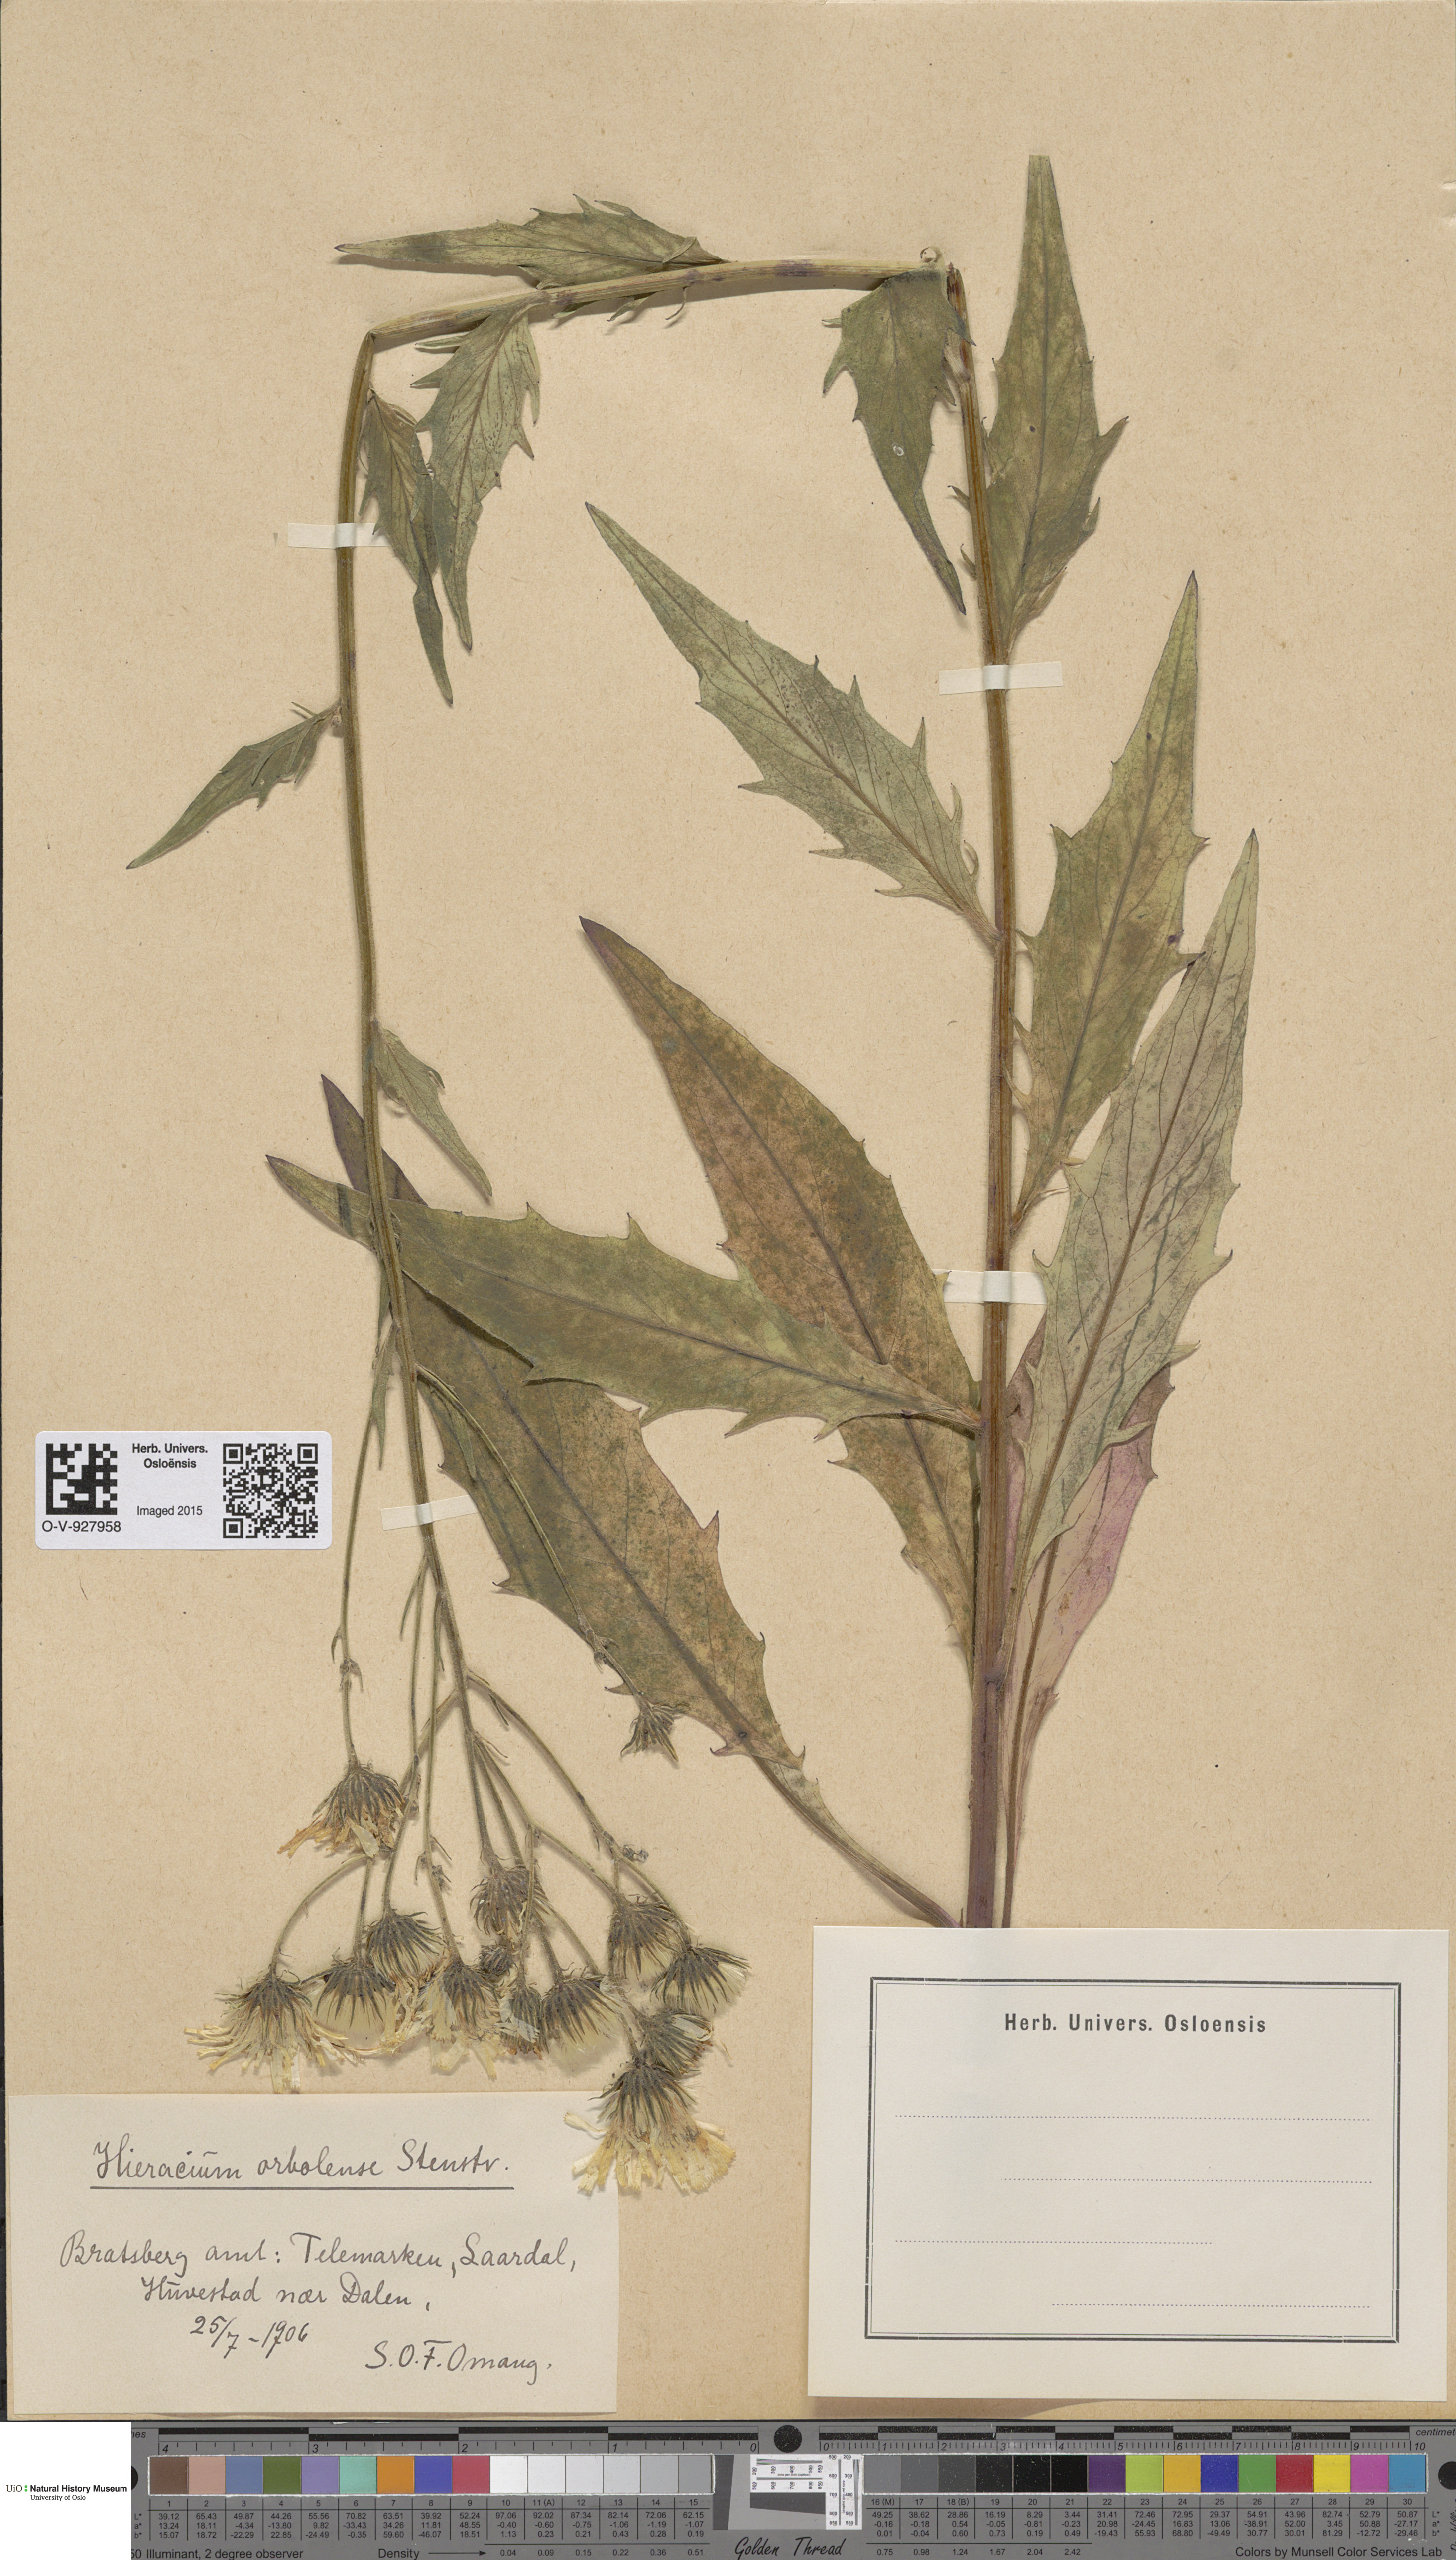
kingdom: Plantae
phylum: Tracheophyta
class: Magnoliopsida
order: Asterales
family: Asteraceae
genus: Hieracium
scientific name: Hieracium orbolense
